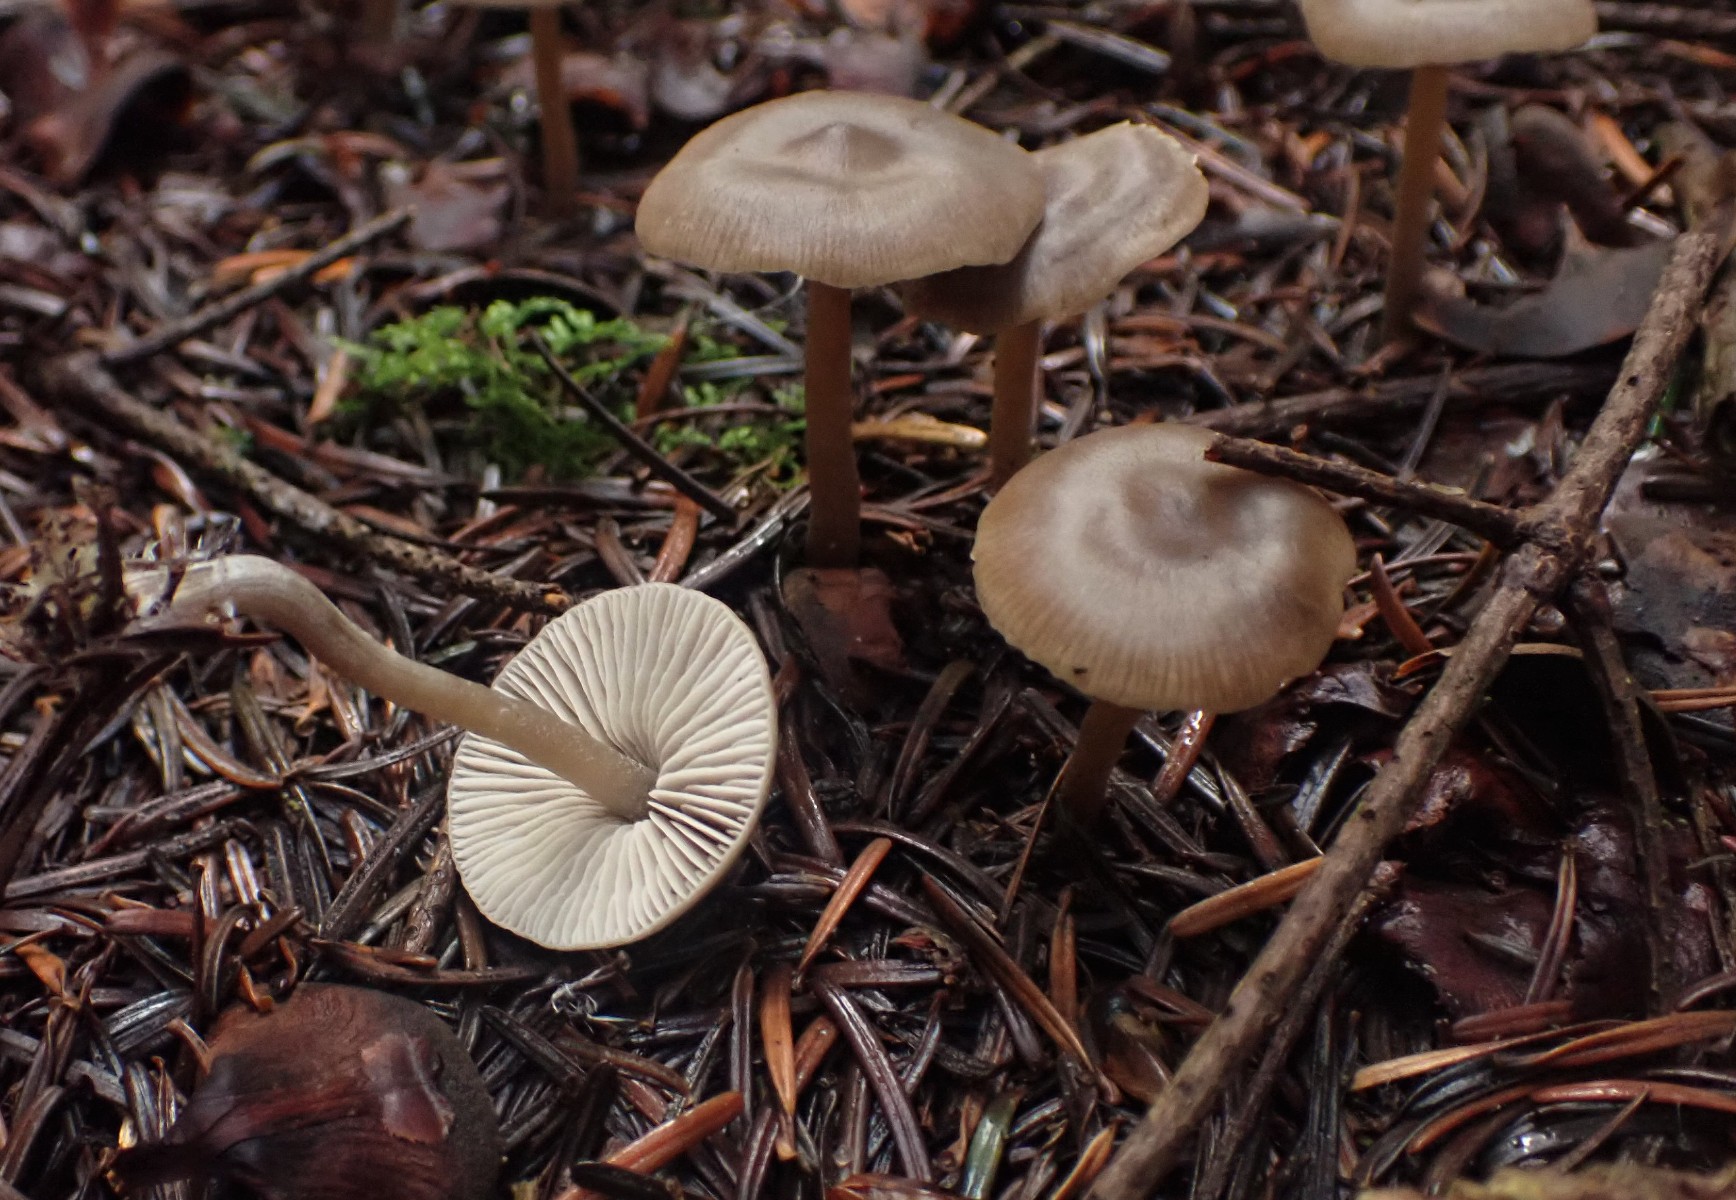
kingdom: Fungi
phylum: Basidiomycota
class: Agaricomycetes
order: Agaricales
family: Lyophyllaceae
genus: Myochromella
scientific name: Myochromella boudieri
